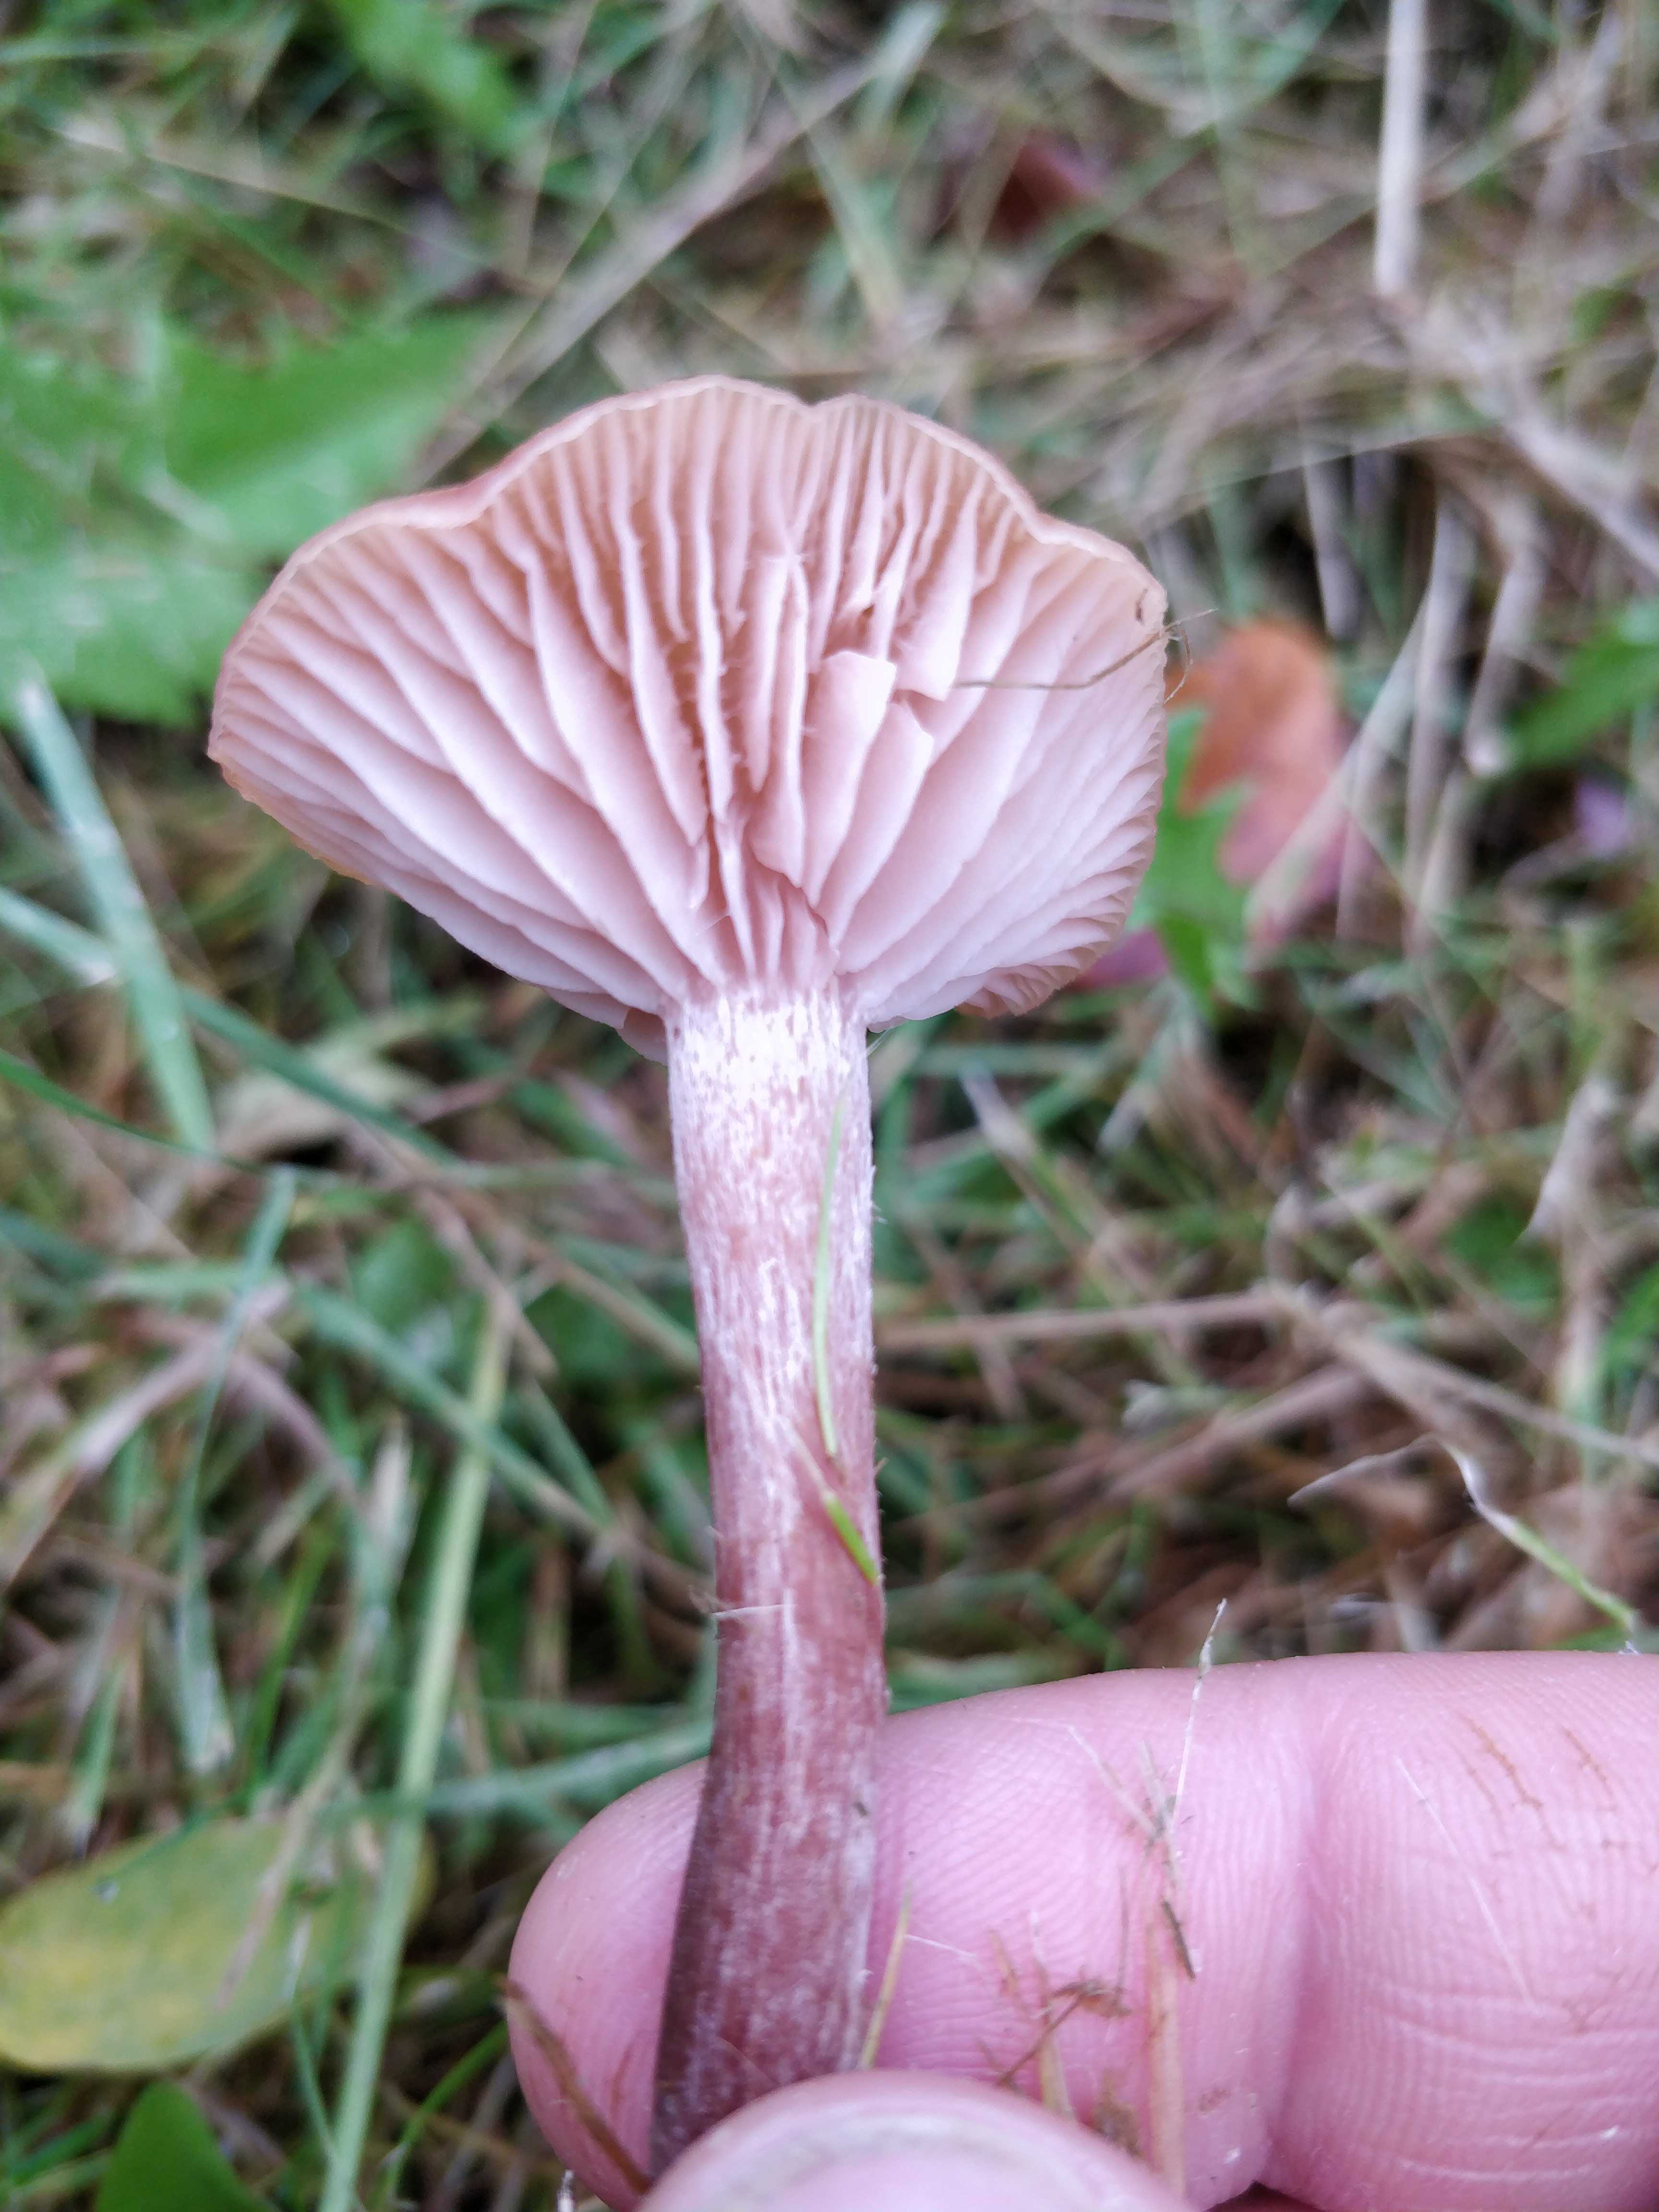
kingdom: Fungi
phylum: Basidiomycota
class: Agaricomycetes
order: Agaricales
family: Hydnangiaceae
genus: Laccaria
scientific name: Laccaria laccata
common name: rød ametysthat
